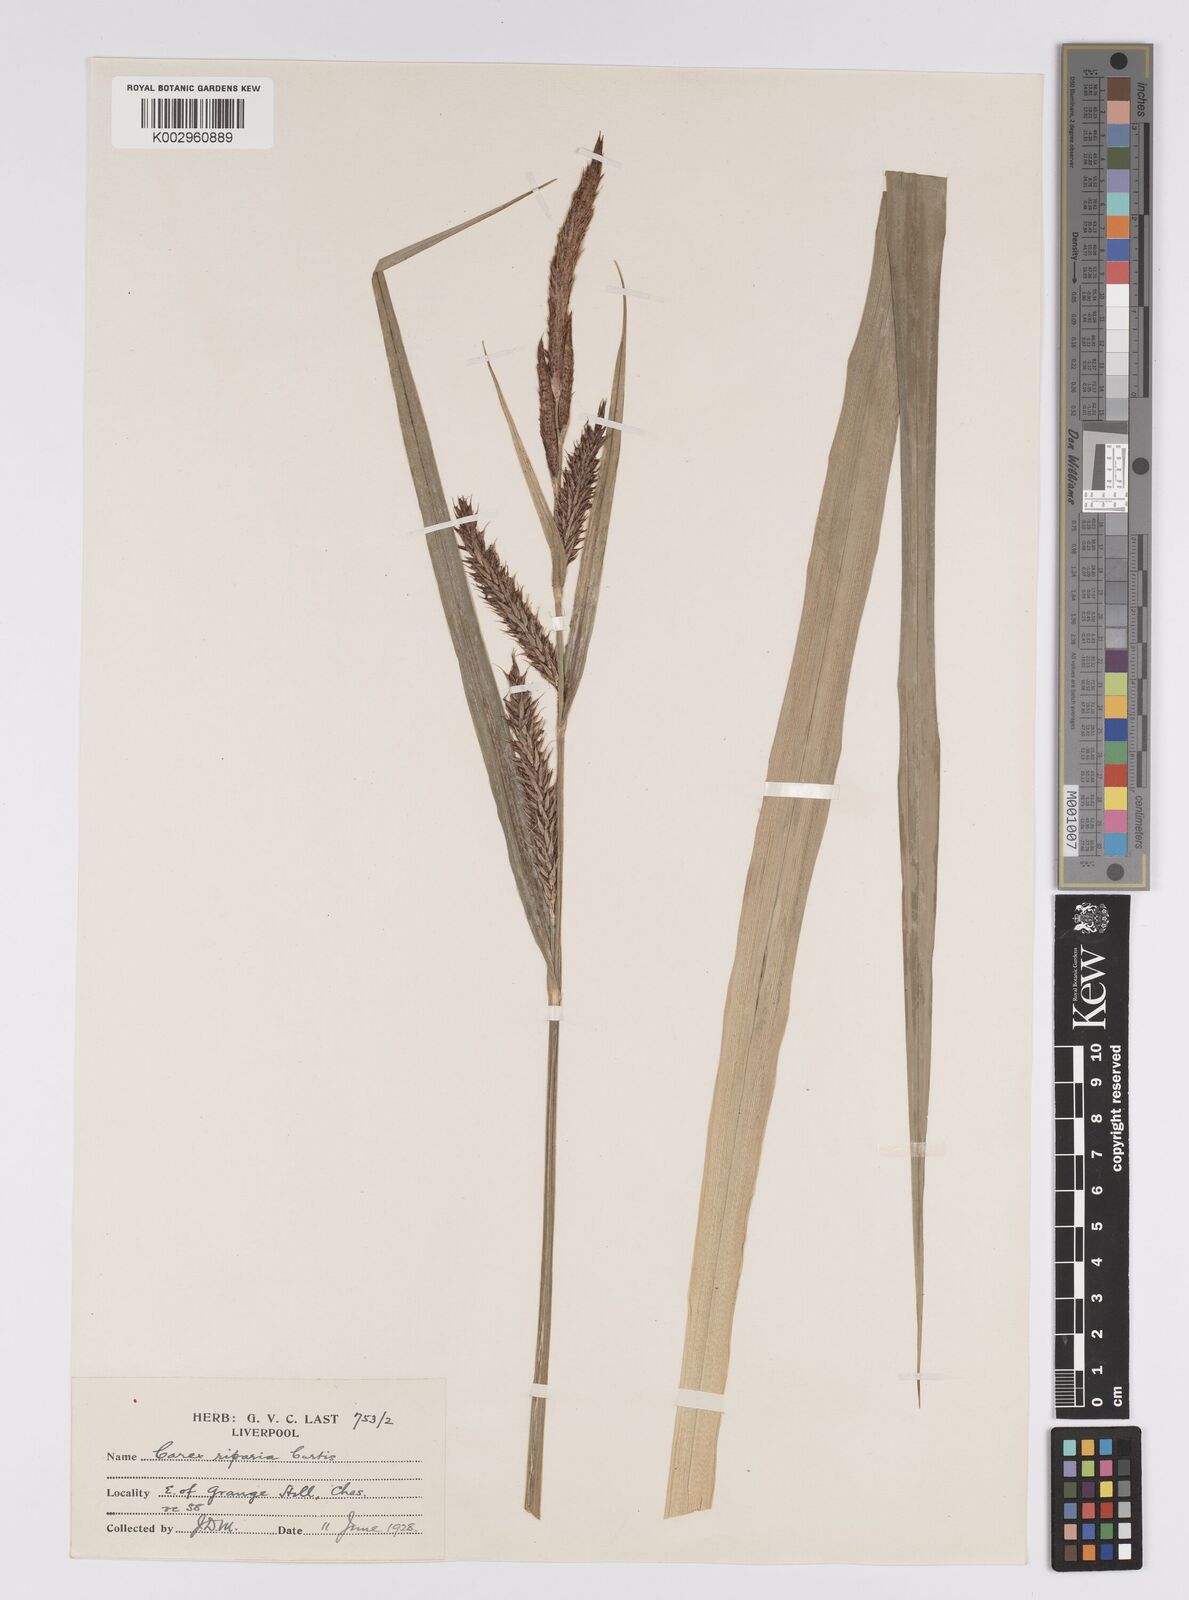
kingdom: Plantae
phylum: Tracheophyta
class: Liliopsida
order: Poales
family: Cyperaceae
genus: Carex
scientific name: Carex riparia
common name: Greater pond-sedge
